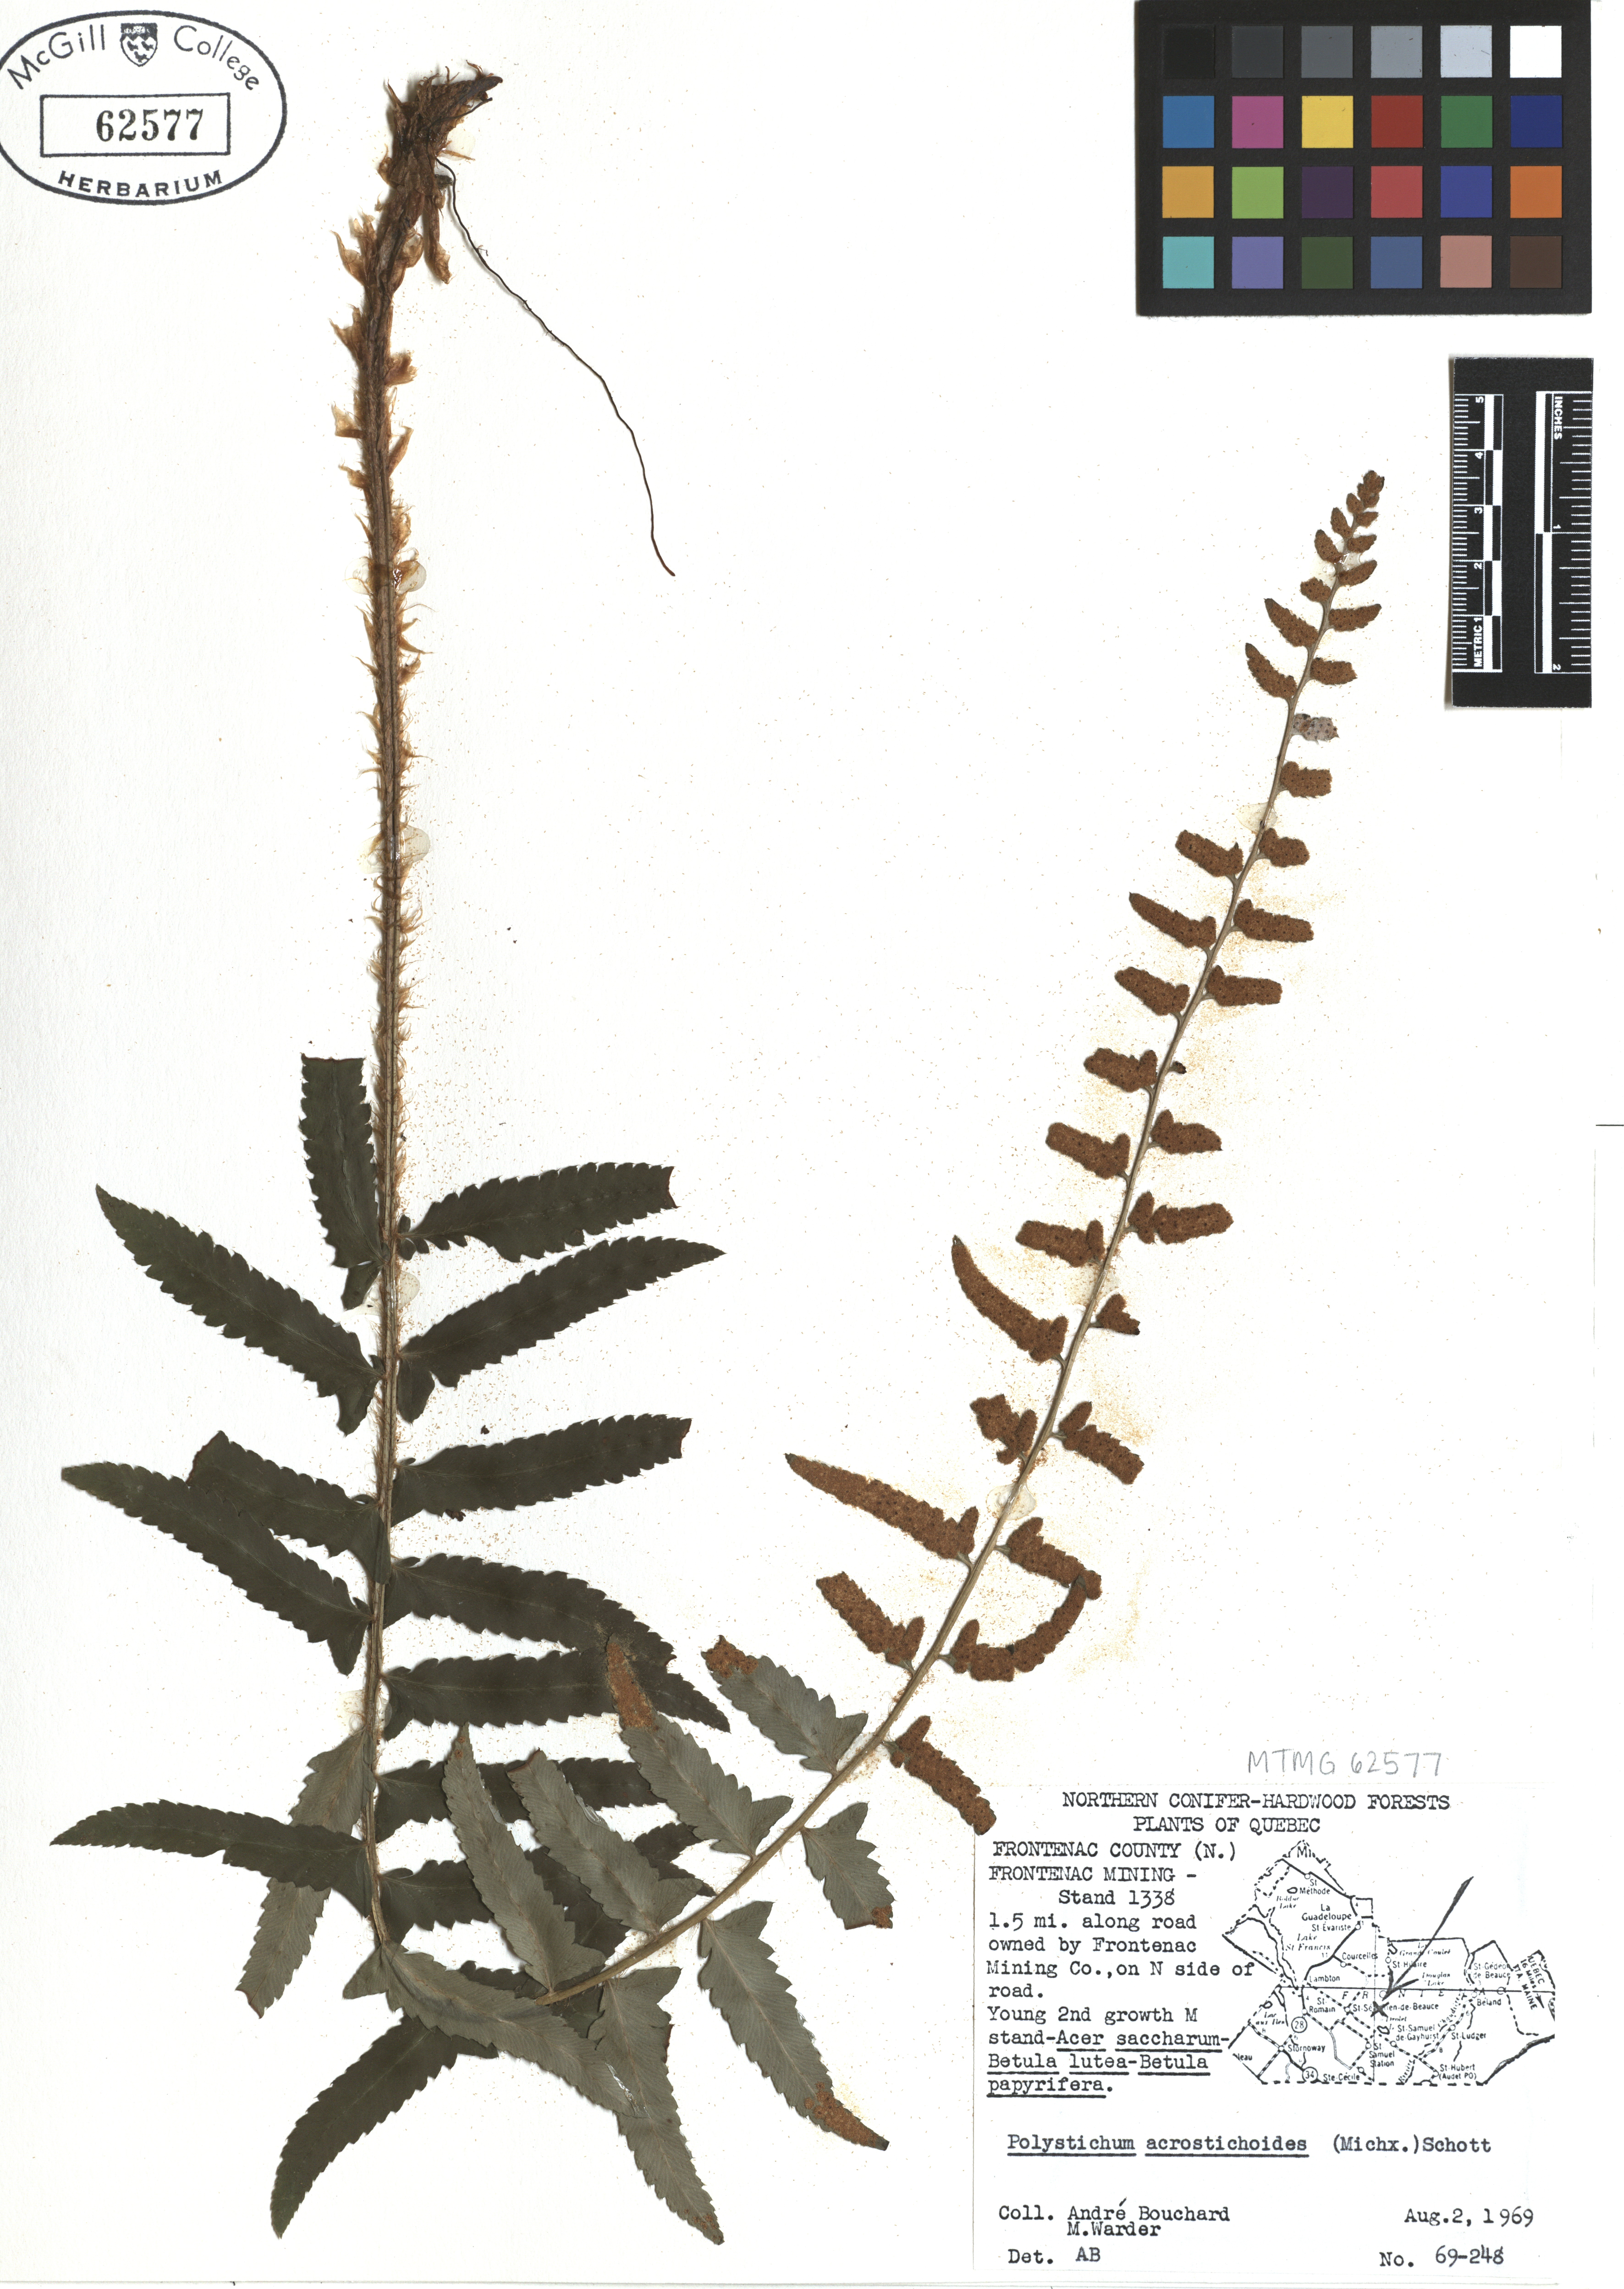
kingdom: Plantae
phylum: Tracheophyta
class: Polypodiopsida
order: Polypodiales
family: Dryopteridaceae
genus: Polystichum
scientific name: Polystichum acrostichoides
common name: Christmas fern
